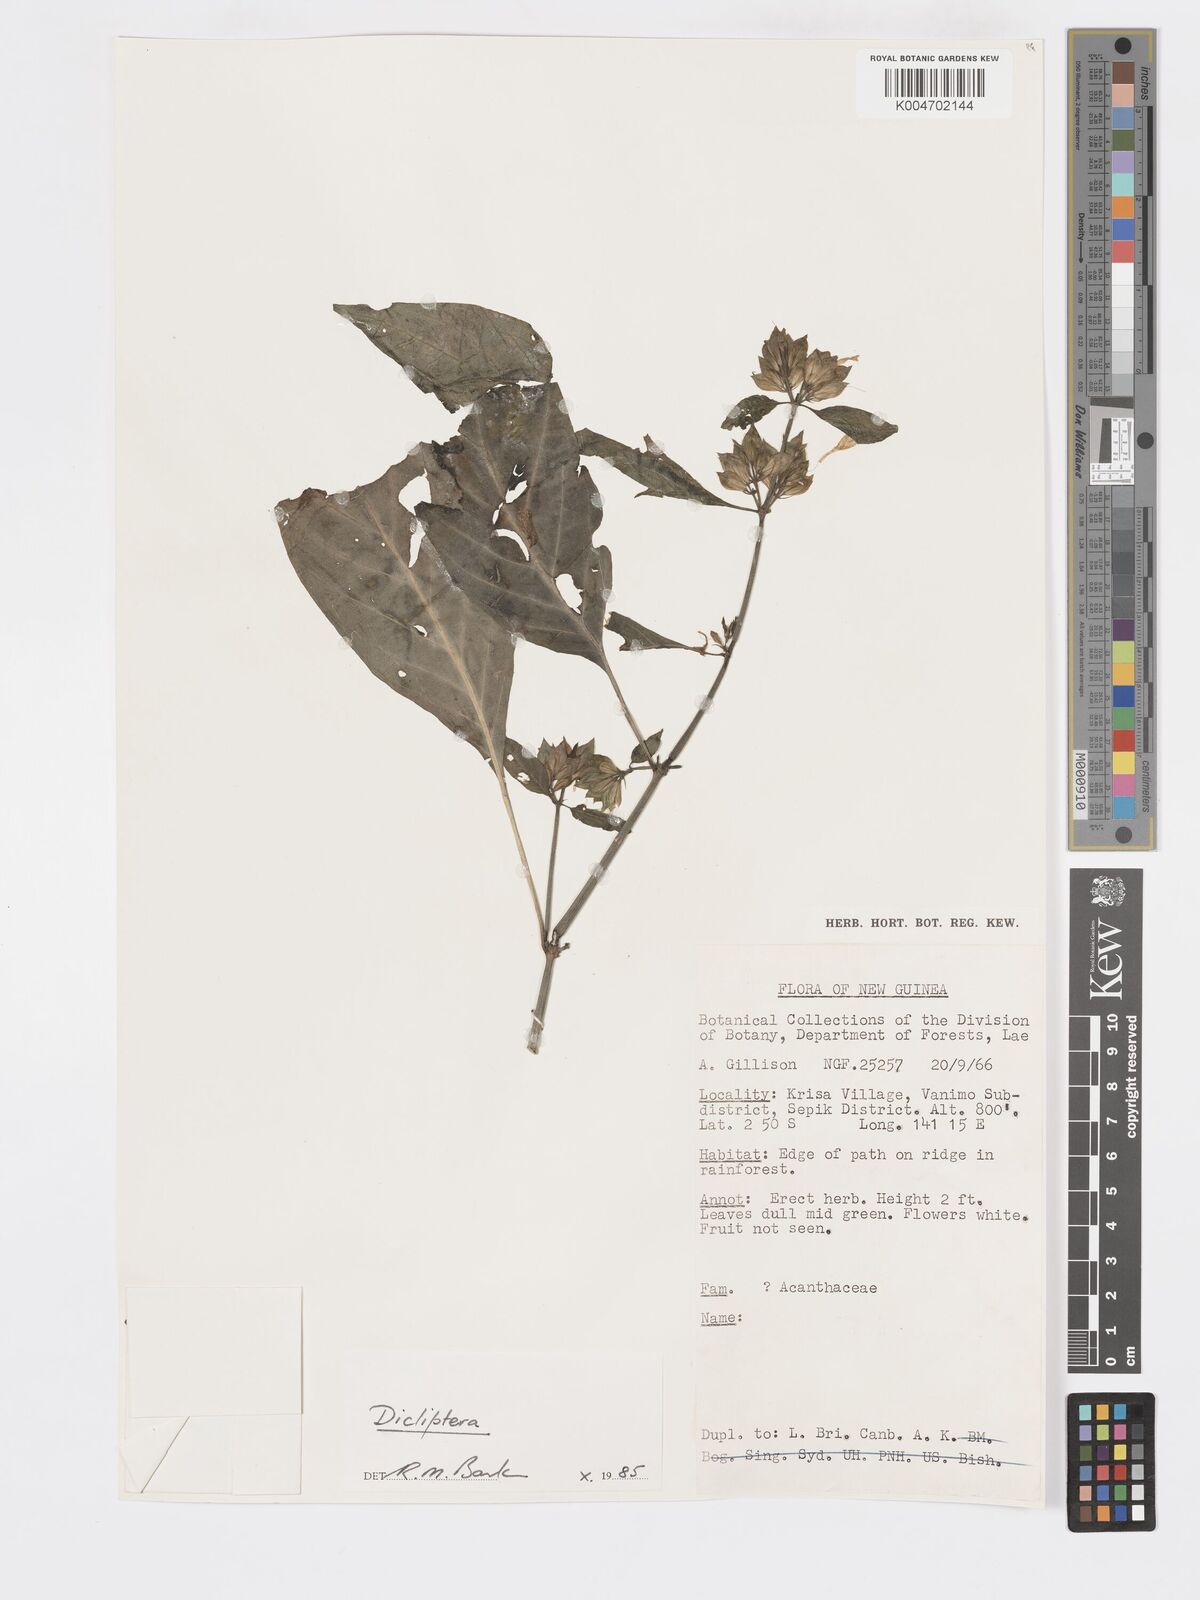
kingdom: Plantae
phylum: Tracheophyta
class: Magnoliopsida
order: Lamiales
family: Acanthaceae
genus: Dicliptera
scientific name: Dicliptera
